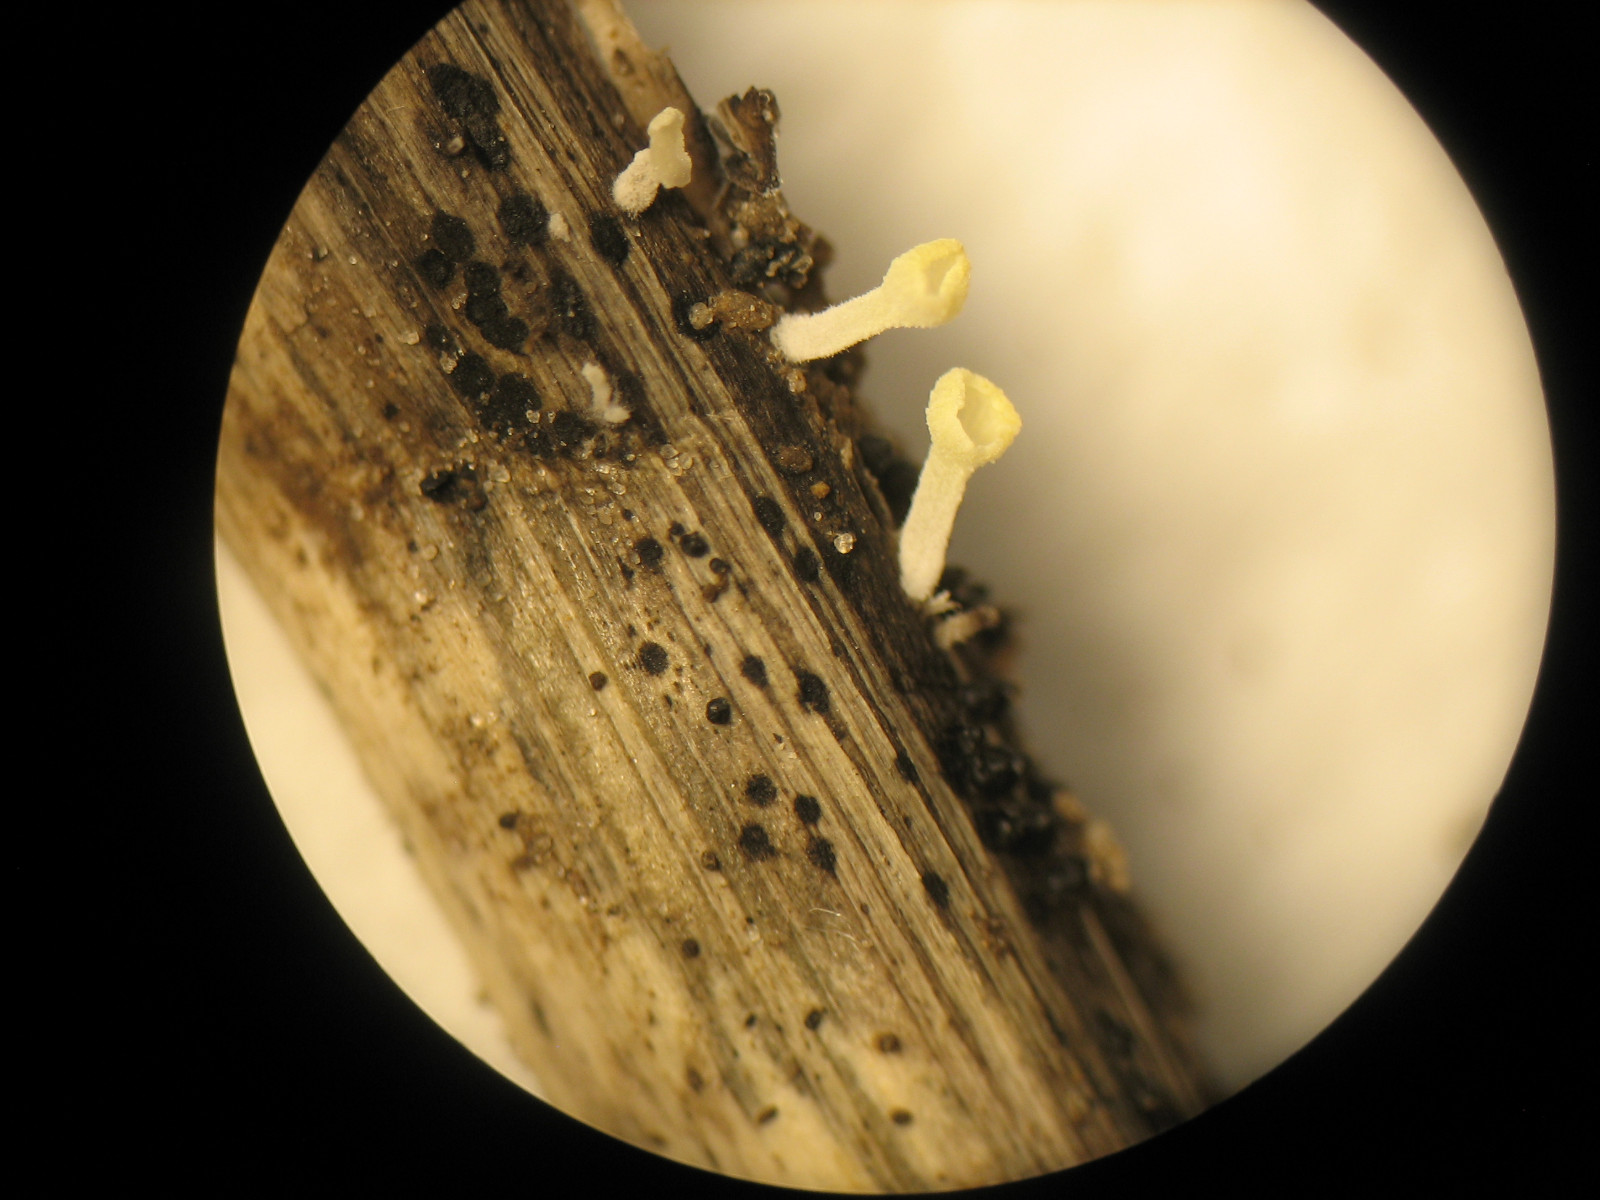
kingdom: Fungi
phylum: Basidiomycota
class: Agaricomycetes
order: Agaricales
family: Marasmiaceae
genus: Calyptella
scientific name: Calyptella campanula
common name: gul nældehue
